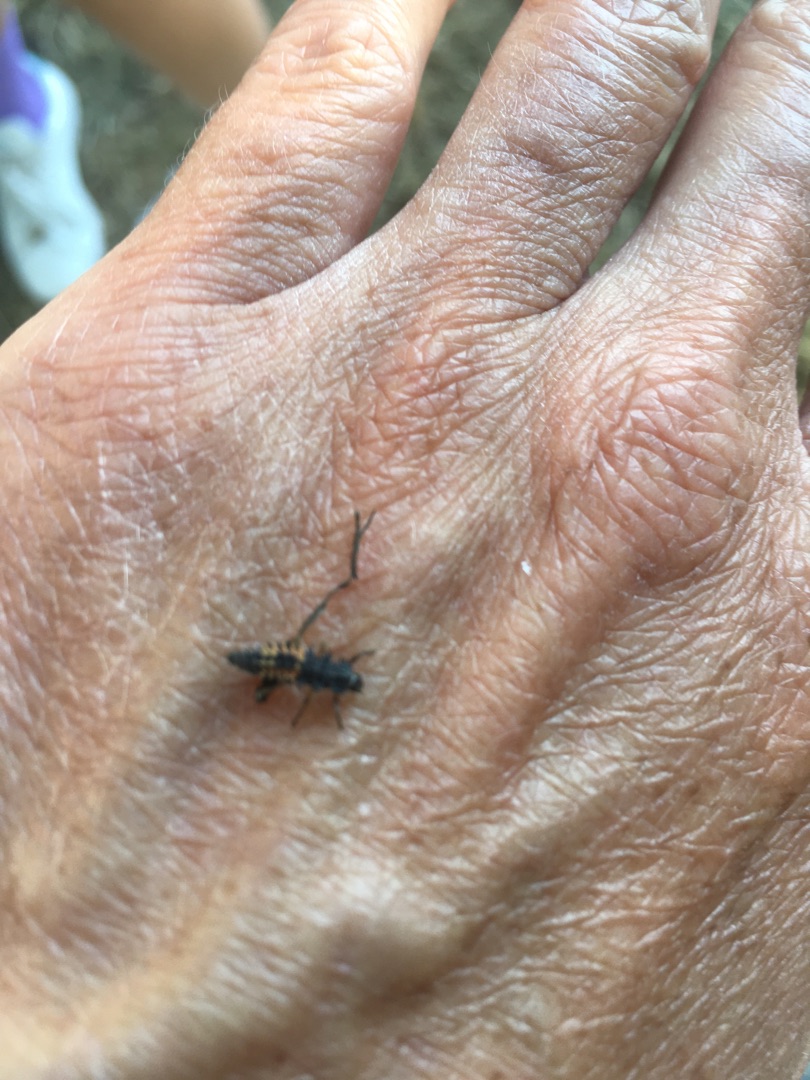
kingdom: Animalia
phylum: Arthropoda
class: Insecta
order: Coleoptera
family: Coccinellidae
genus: Harmonia
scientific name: Harmonia axyridis
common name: Harlekinmariehøne
